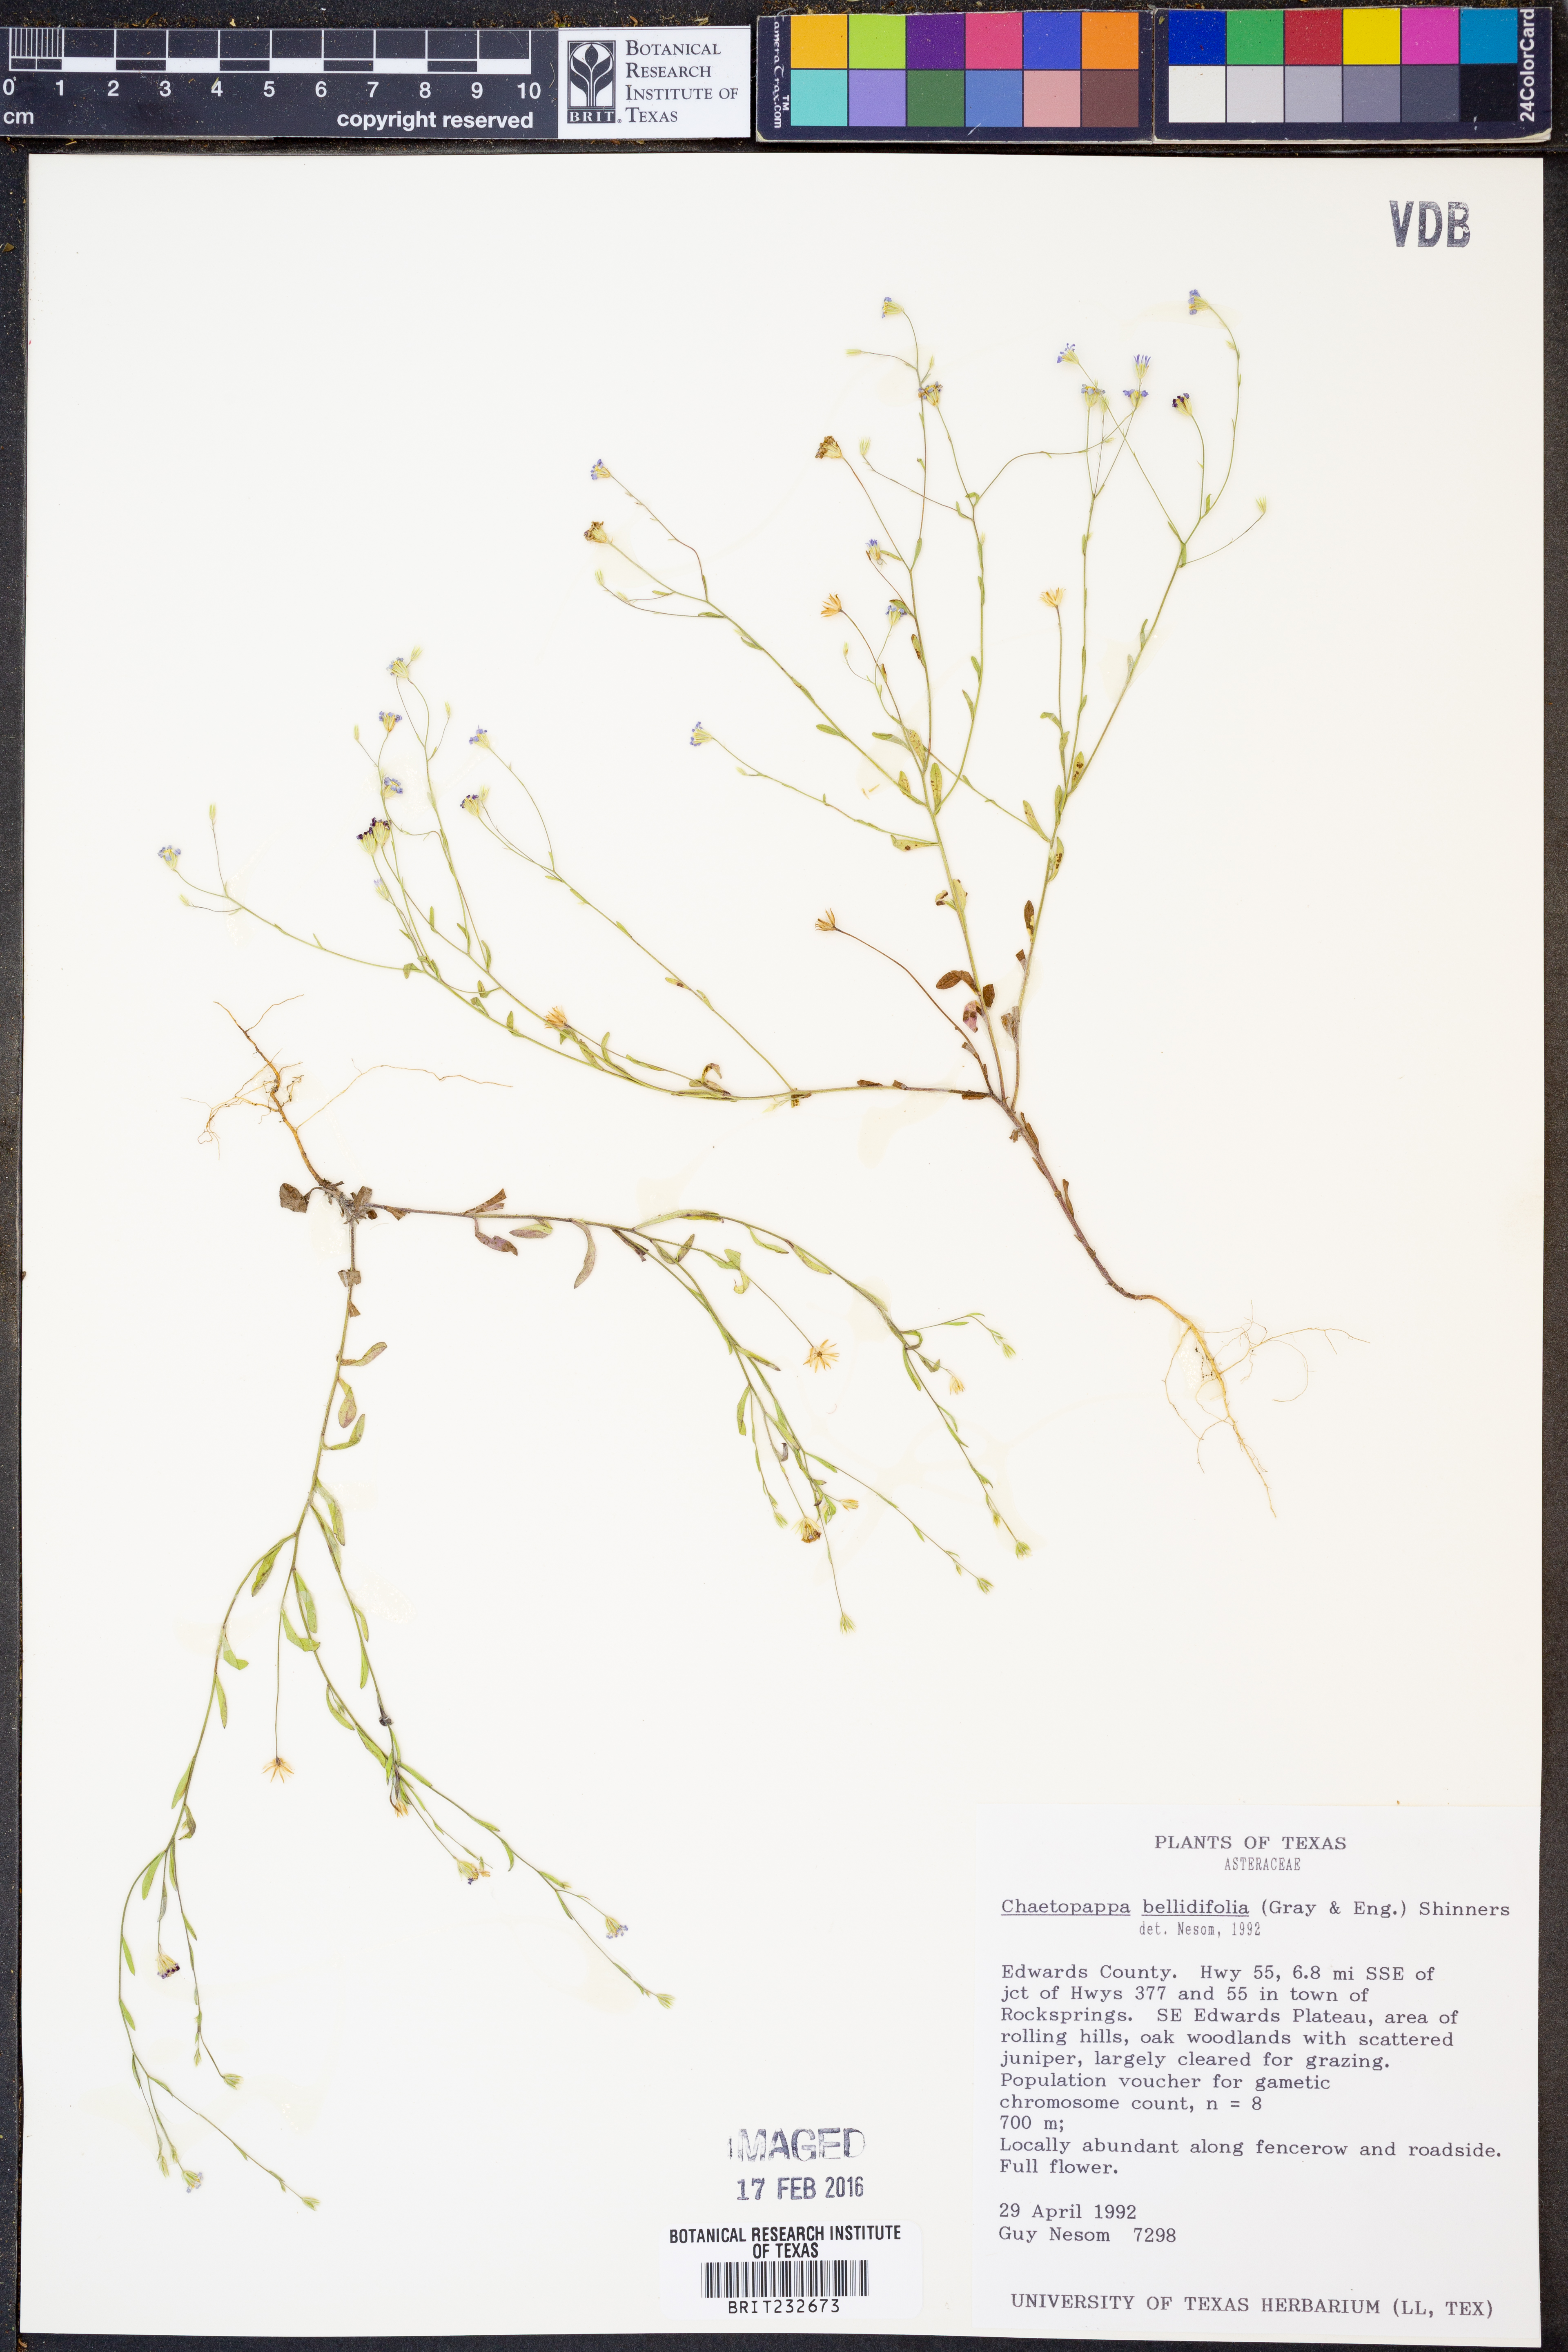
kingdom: Plantae
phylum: Tracheophyta
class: Magnoliopsida
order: Asterales
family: Asteraceae
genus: Chaetopappa
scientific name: Chaetopappa bellidifolia
